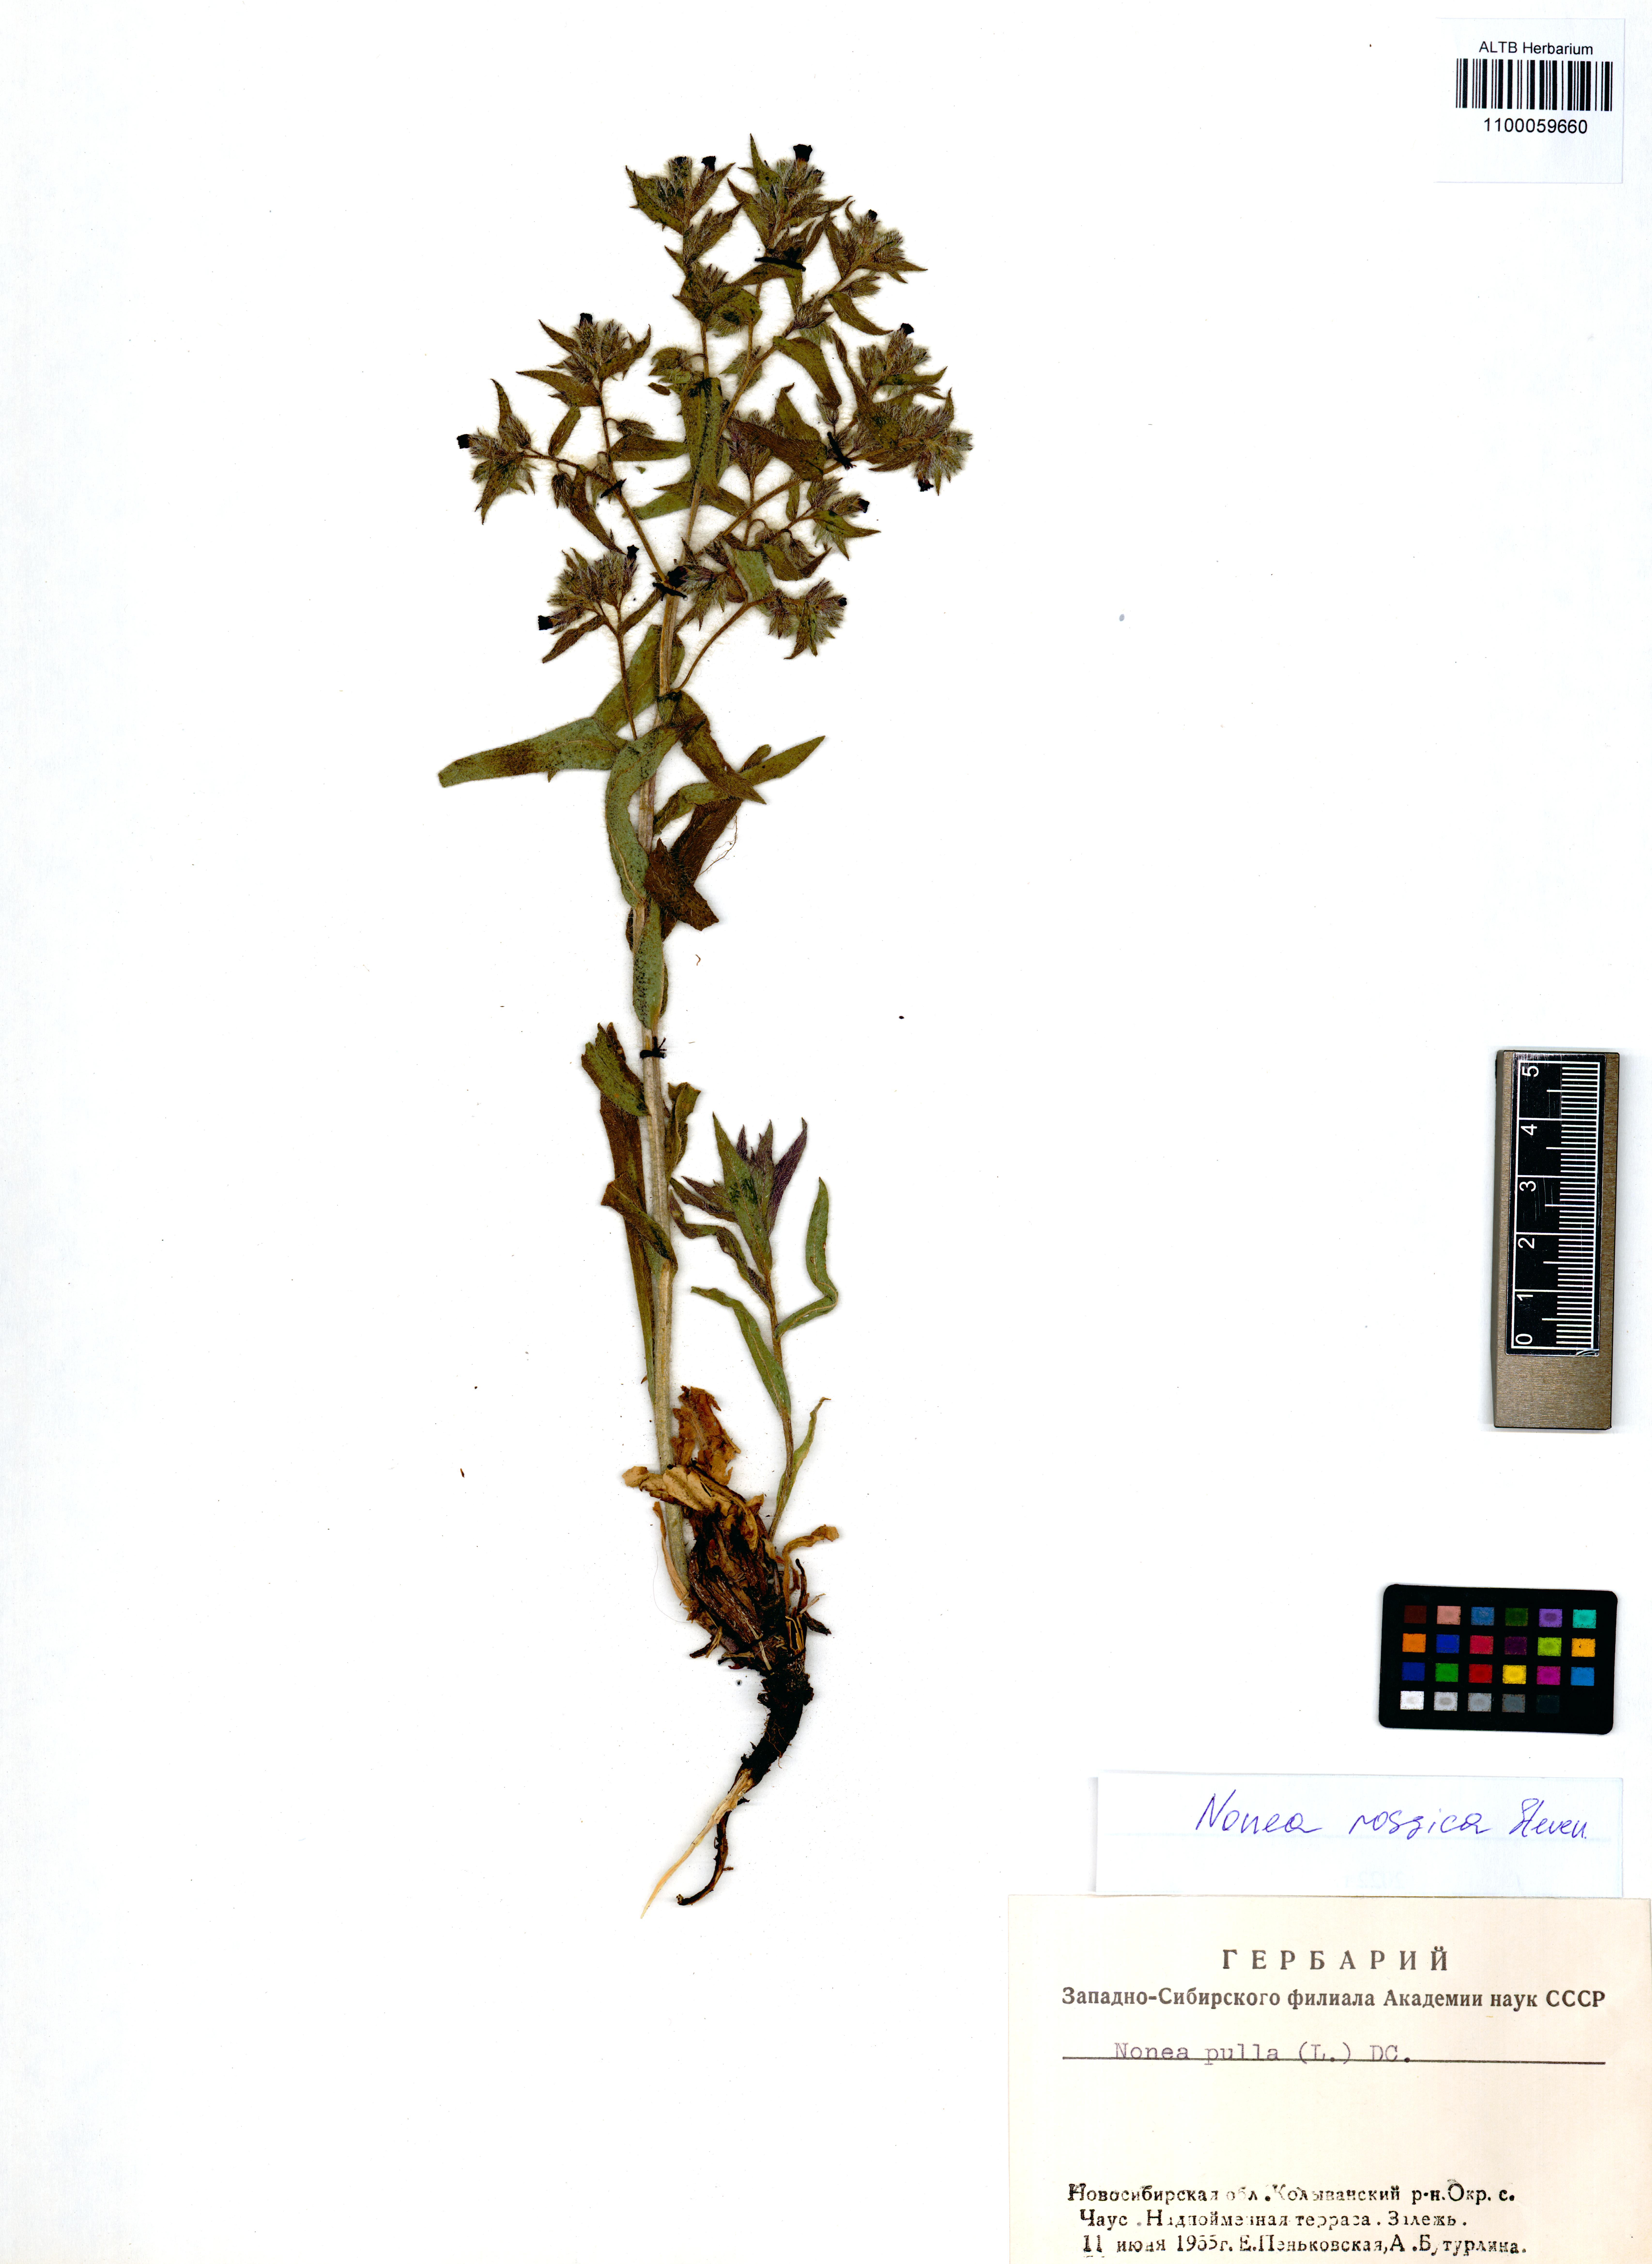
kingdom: Plantae
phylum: Tracheophyta
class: Magnoliopsida
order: Boraginales
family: Boraginaceae
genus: Nonea
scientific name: Nonea pulla
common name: Brown nonea
